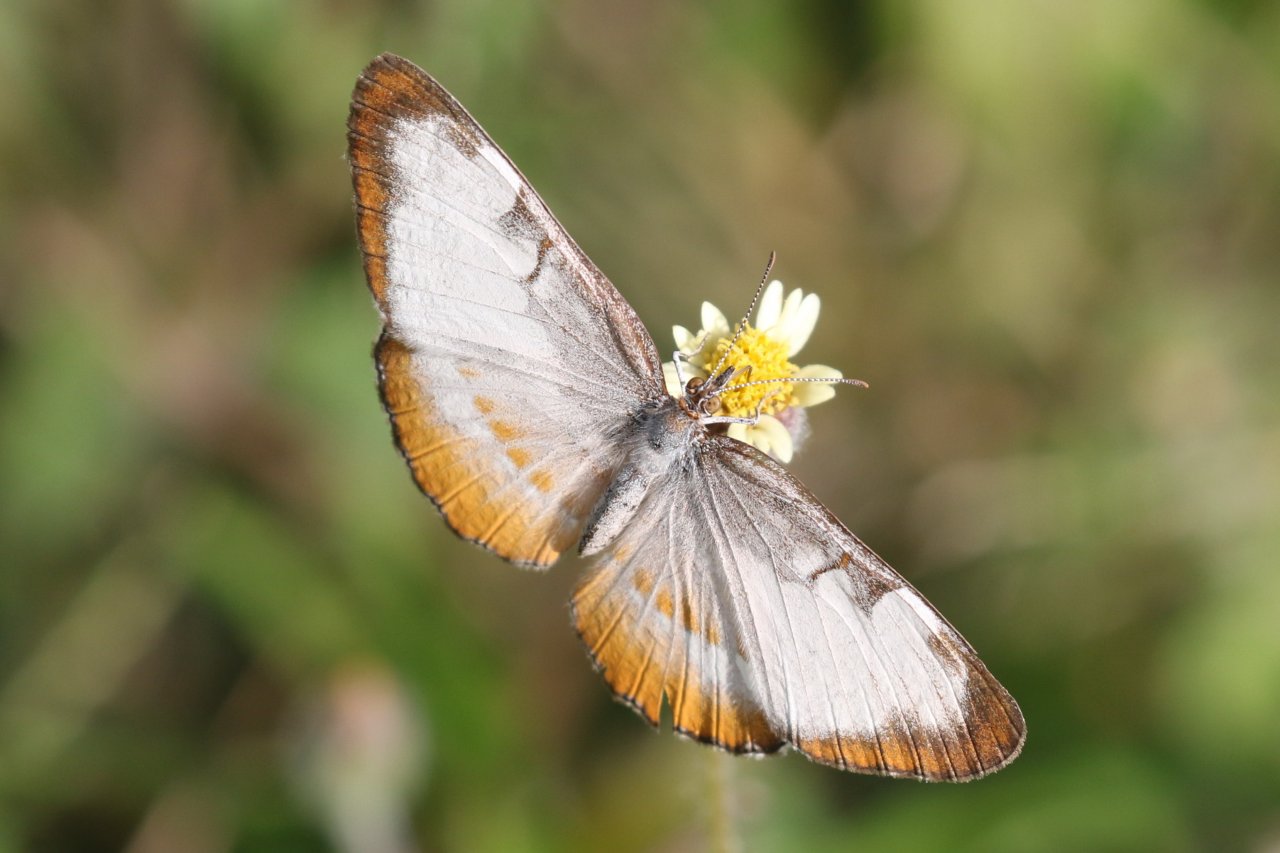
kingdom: Animalia
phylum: Arthropoda
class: Insecta
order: Lepidoptera
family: Nymphalidae
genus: Mestra
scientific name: Mestra amymone
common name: Common Mestra
